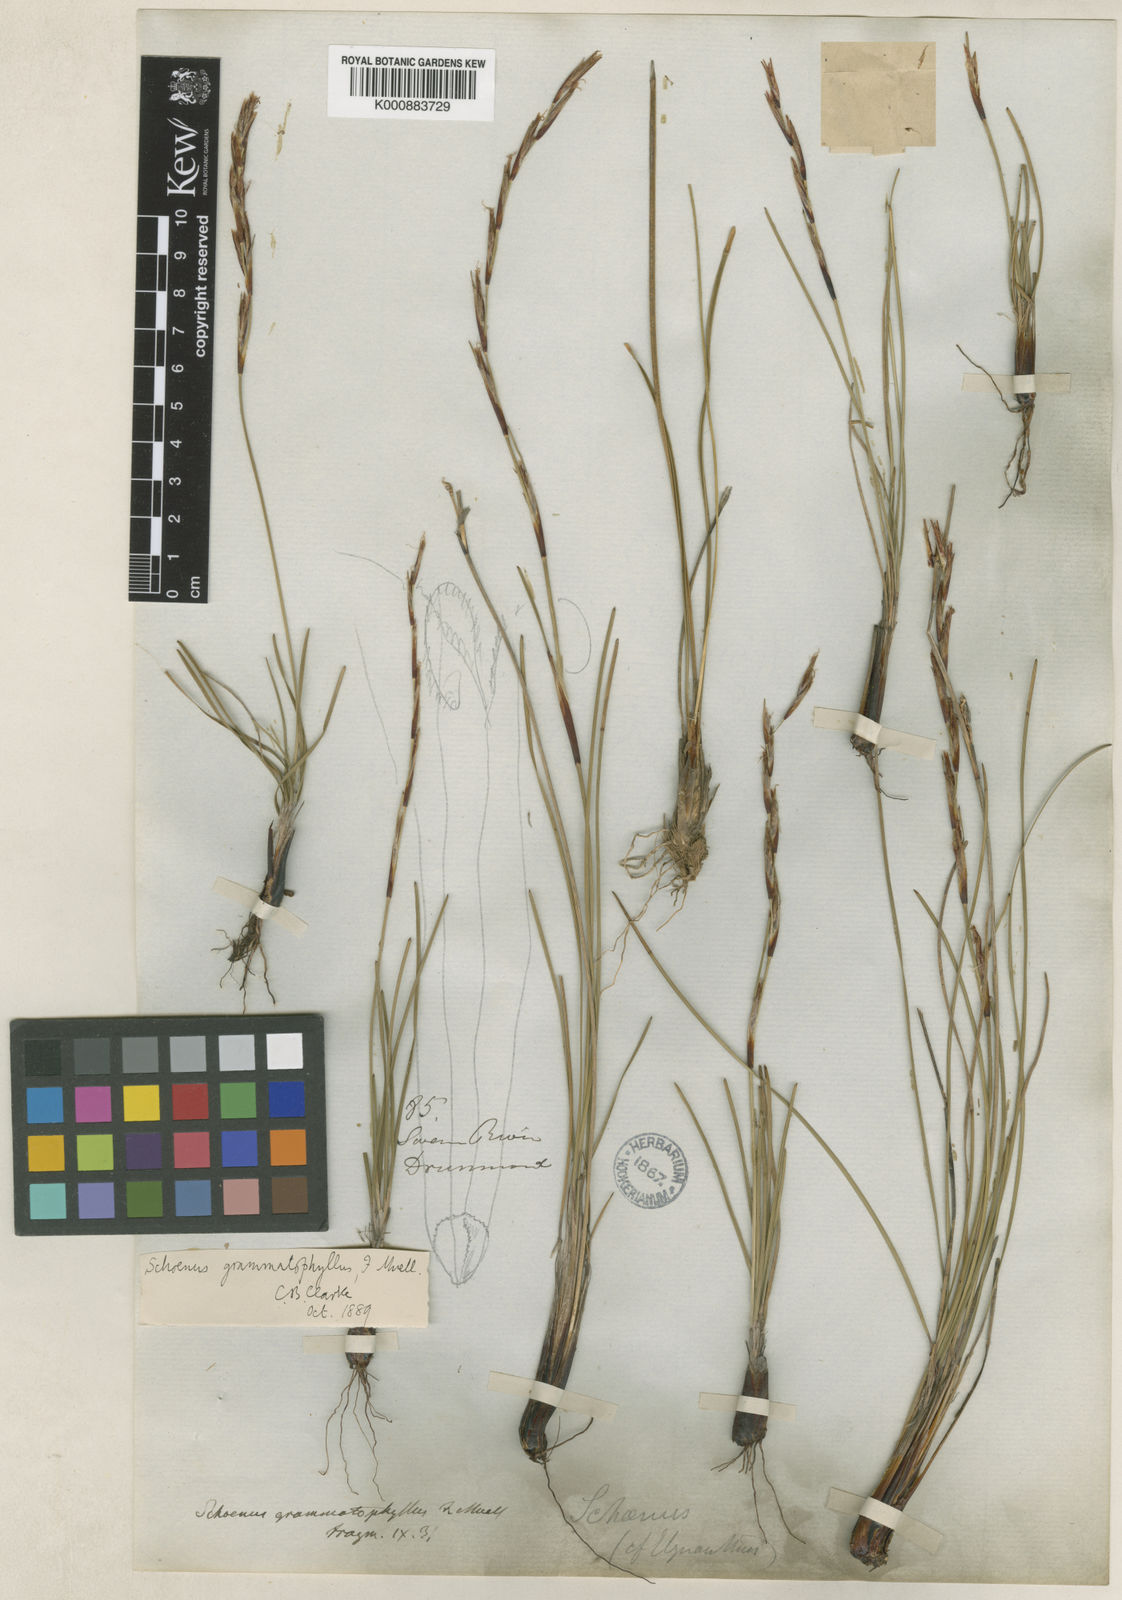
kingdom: Plantae
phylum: Tracheophyta
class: Liliopsida
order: Poales
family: Cyperaceae
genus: Schoenus
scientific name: Schoenus grammatophyllus
